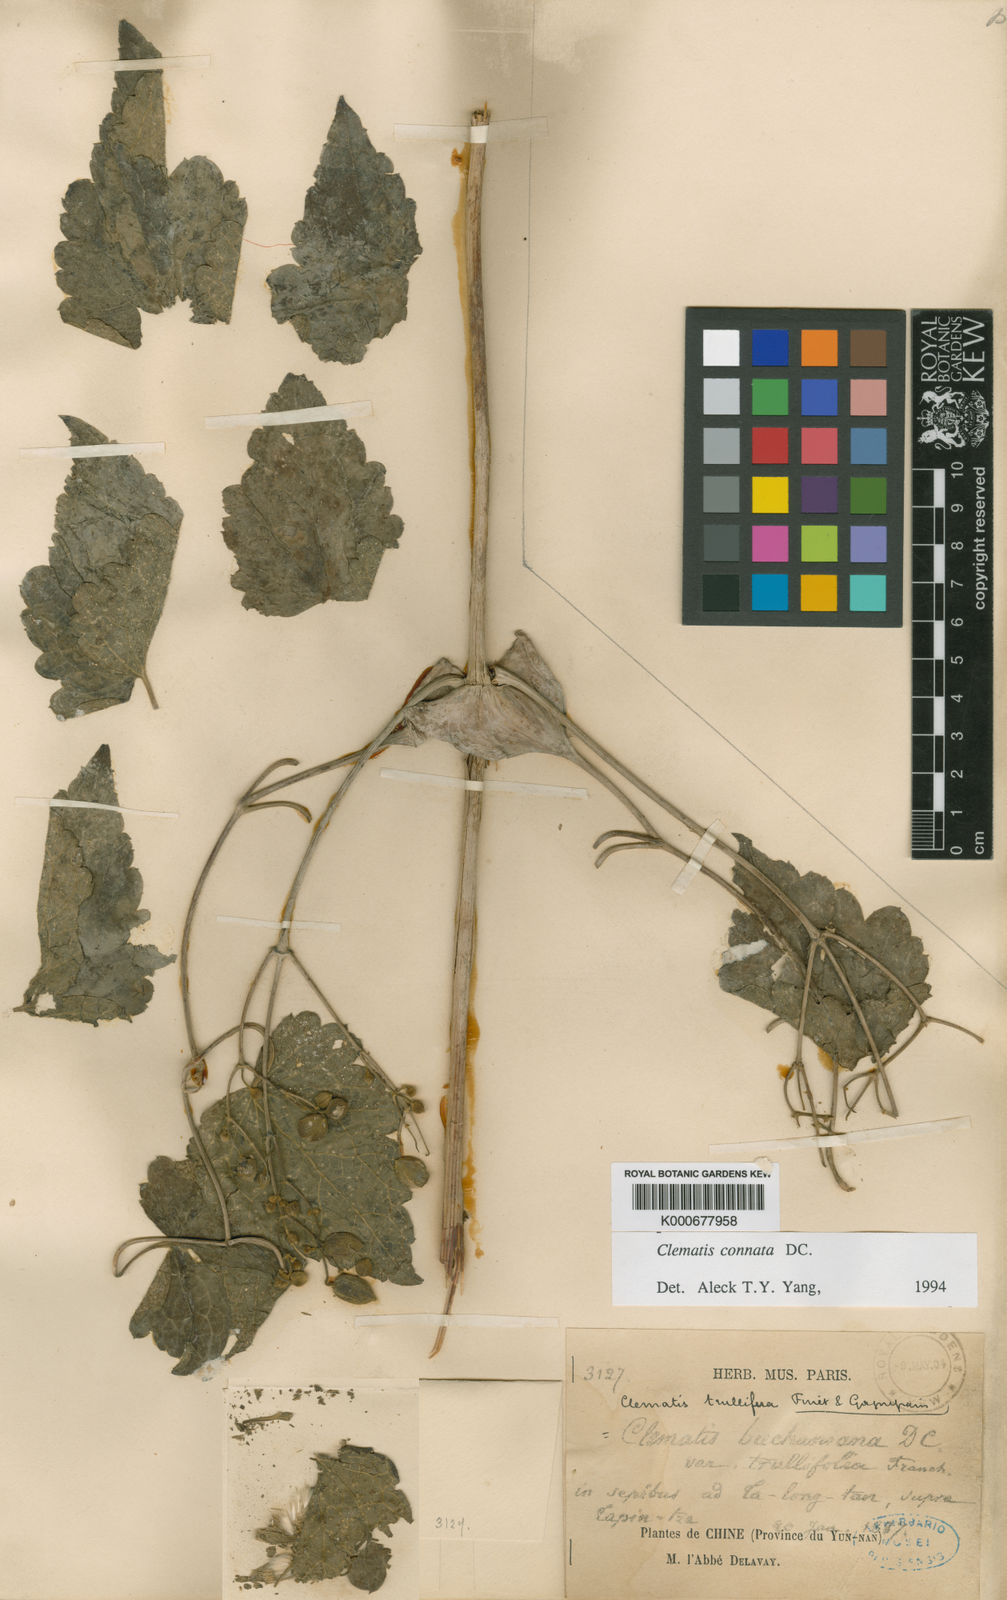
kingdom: Plantae
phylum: Tracheophyta
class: Magnoliopsida
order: Ranunculales
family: Ranunculaceae
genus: Clematis
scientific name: Clematis connata
